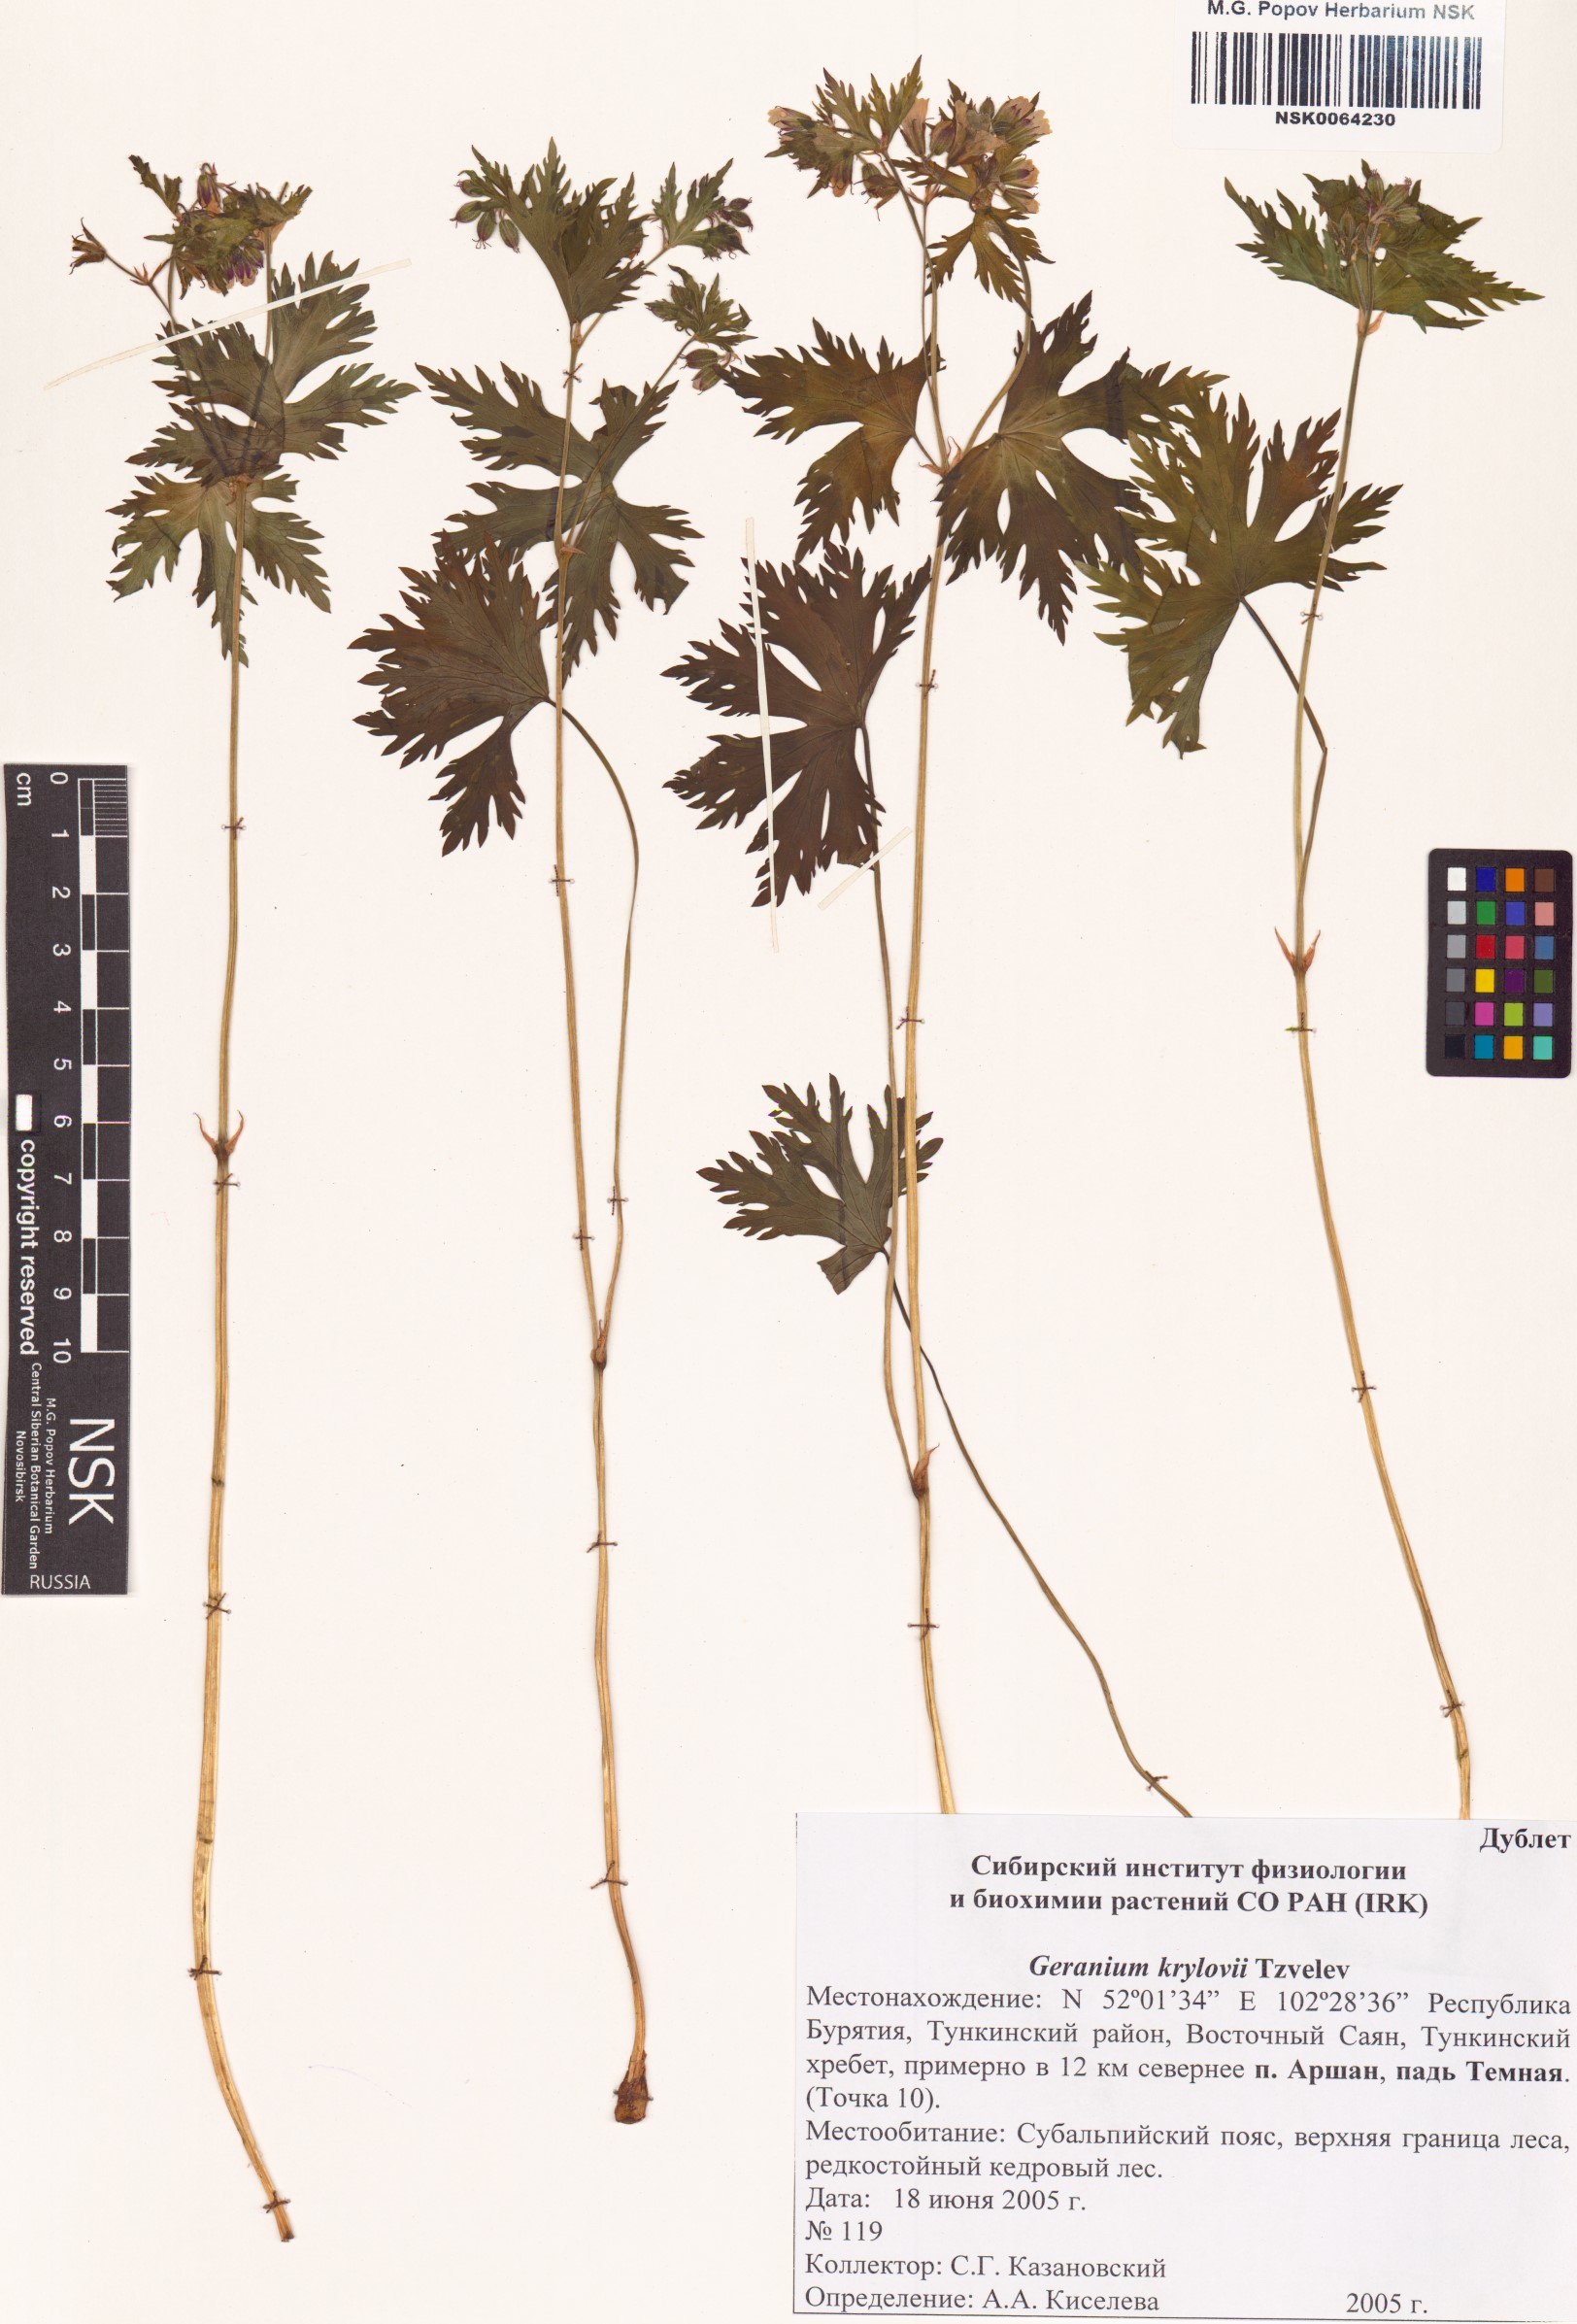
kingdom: Plantae
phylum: Tracheophyta
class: Magnoliopsida
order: Geraniales
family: Geraniaceae
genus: Geranium
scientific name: Geranium sylvaticum
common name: Wood crane's-bill
